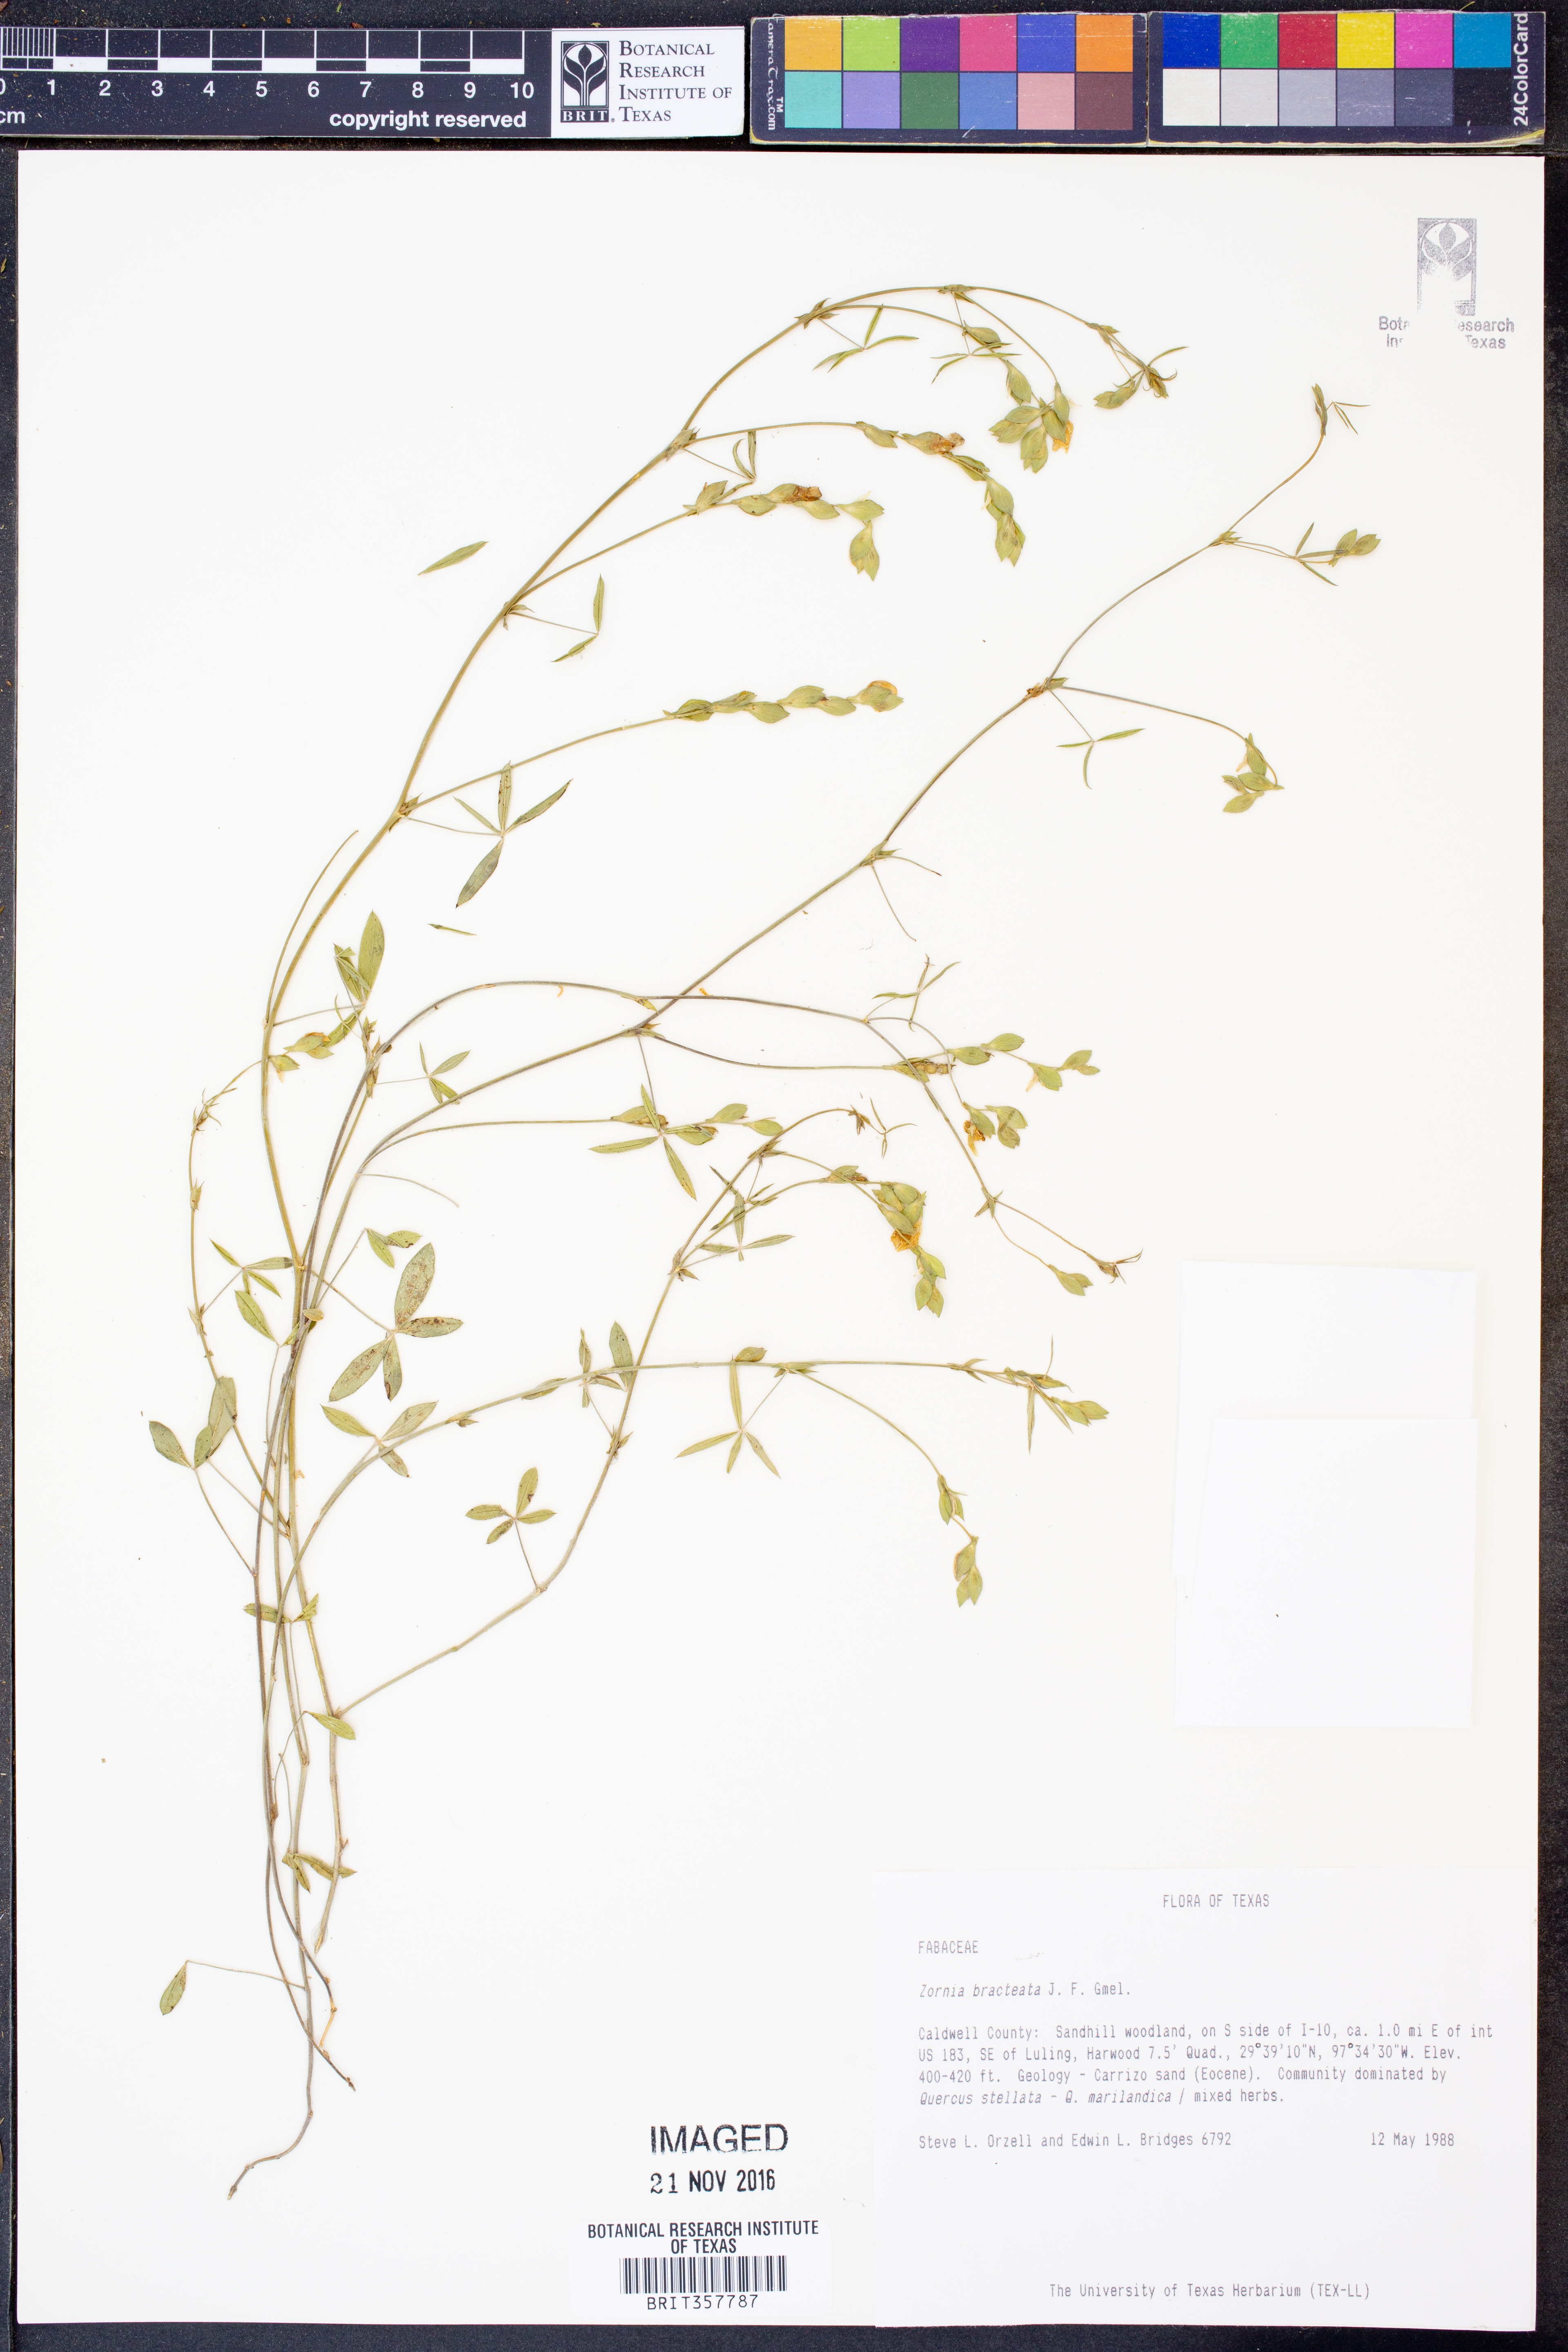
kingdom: Plantae
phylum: Tracheophyta
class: Magnoliopsida
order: Fabales
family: Fabaceae
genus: Zornia
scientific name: Zornia bracteata
